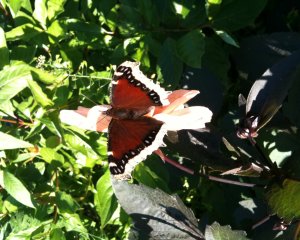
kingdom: Animalia
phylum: Arthropoda
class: Insecta
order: Lepidoptera
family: Nymphalidae
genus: Nymphalis
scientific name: Nymphalis antiopa
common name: Mourning Cloak
